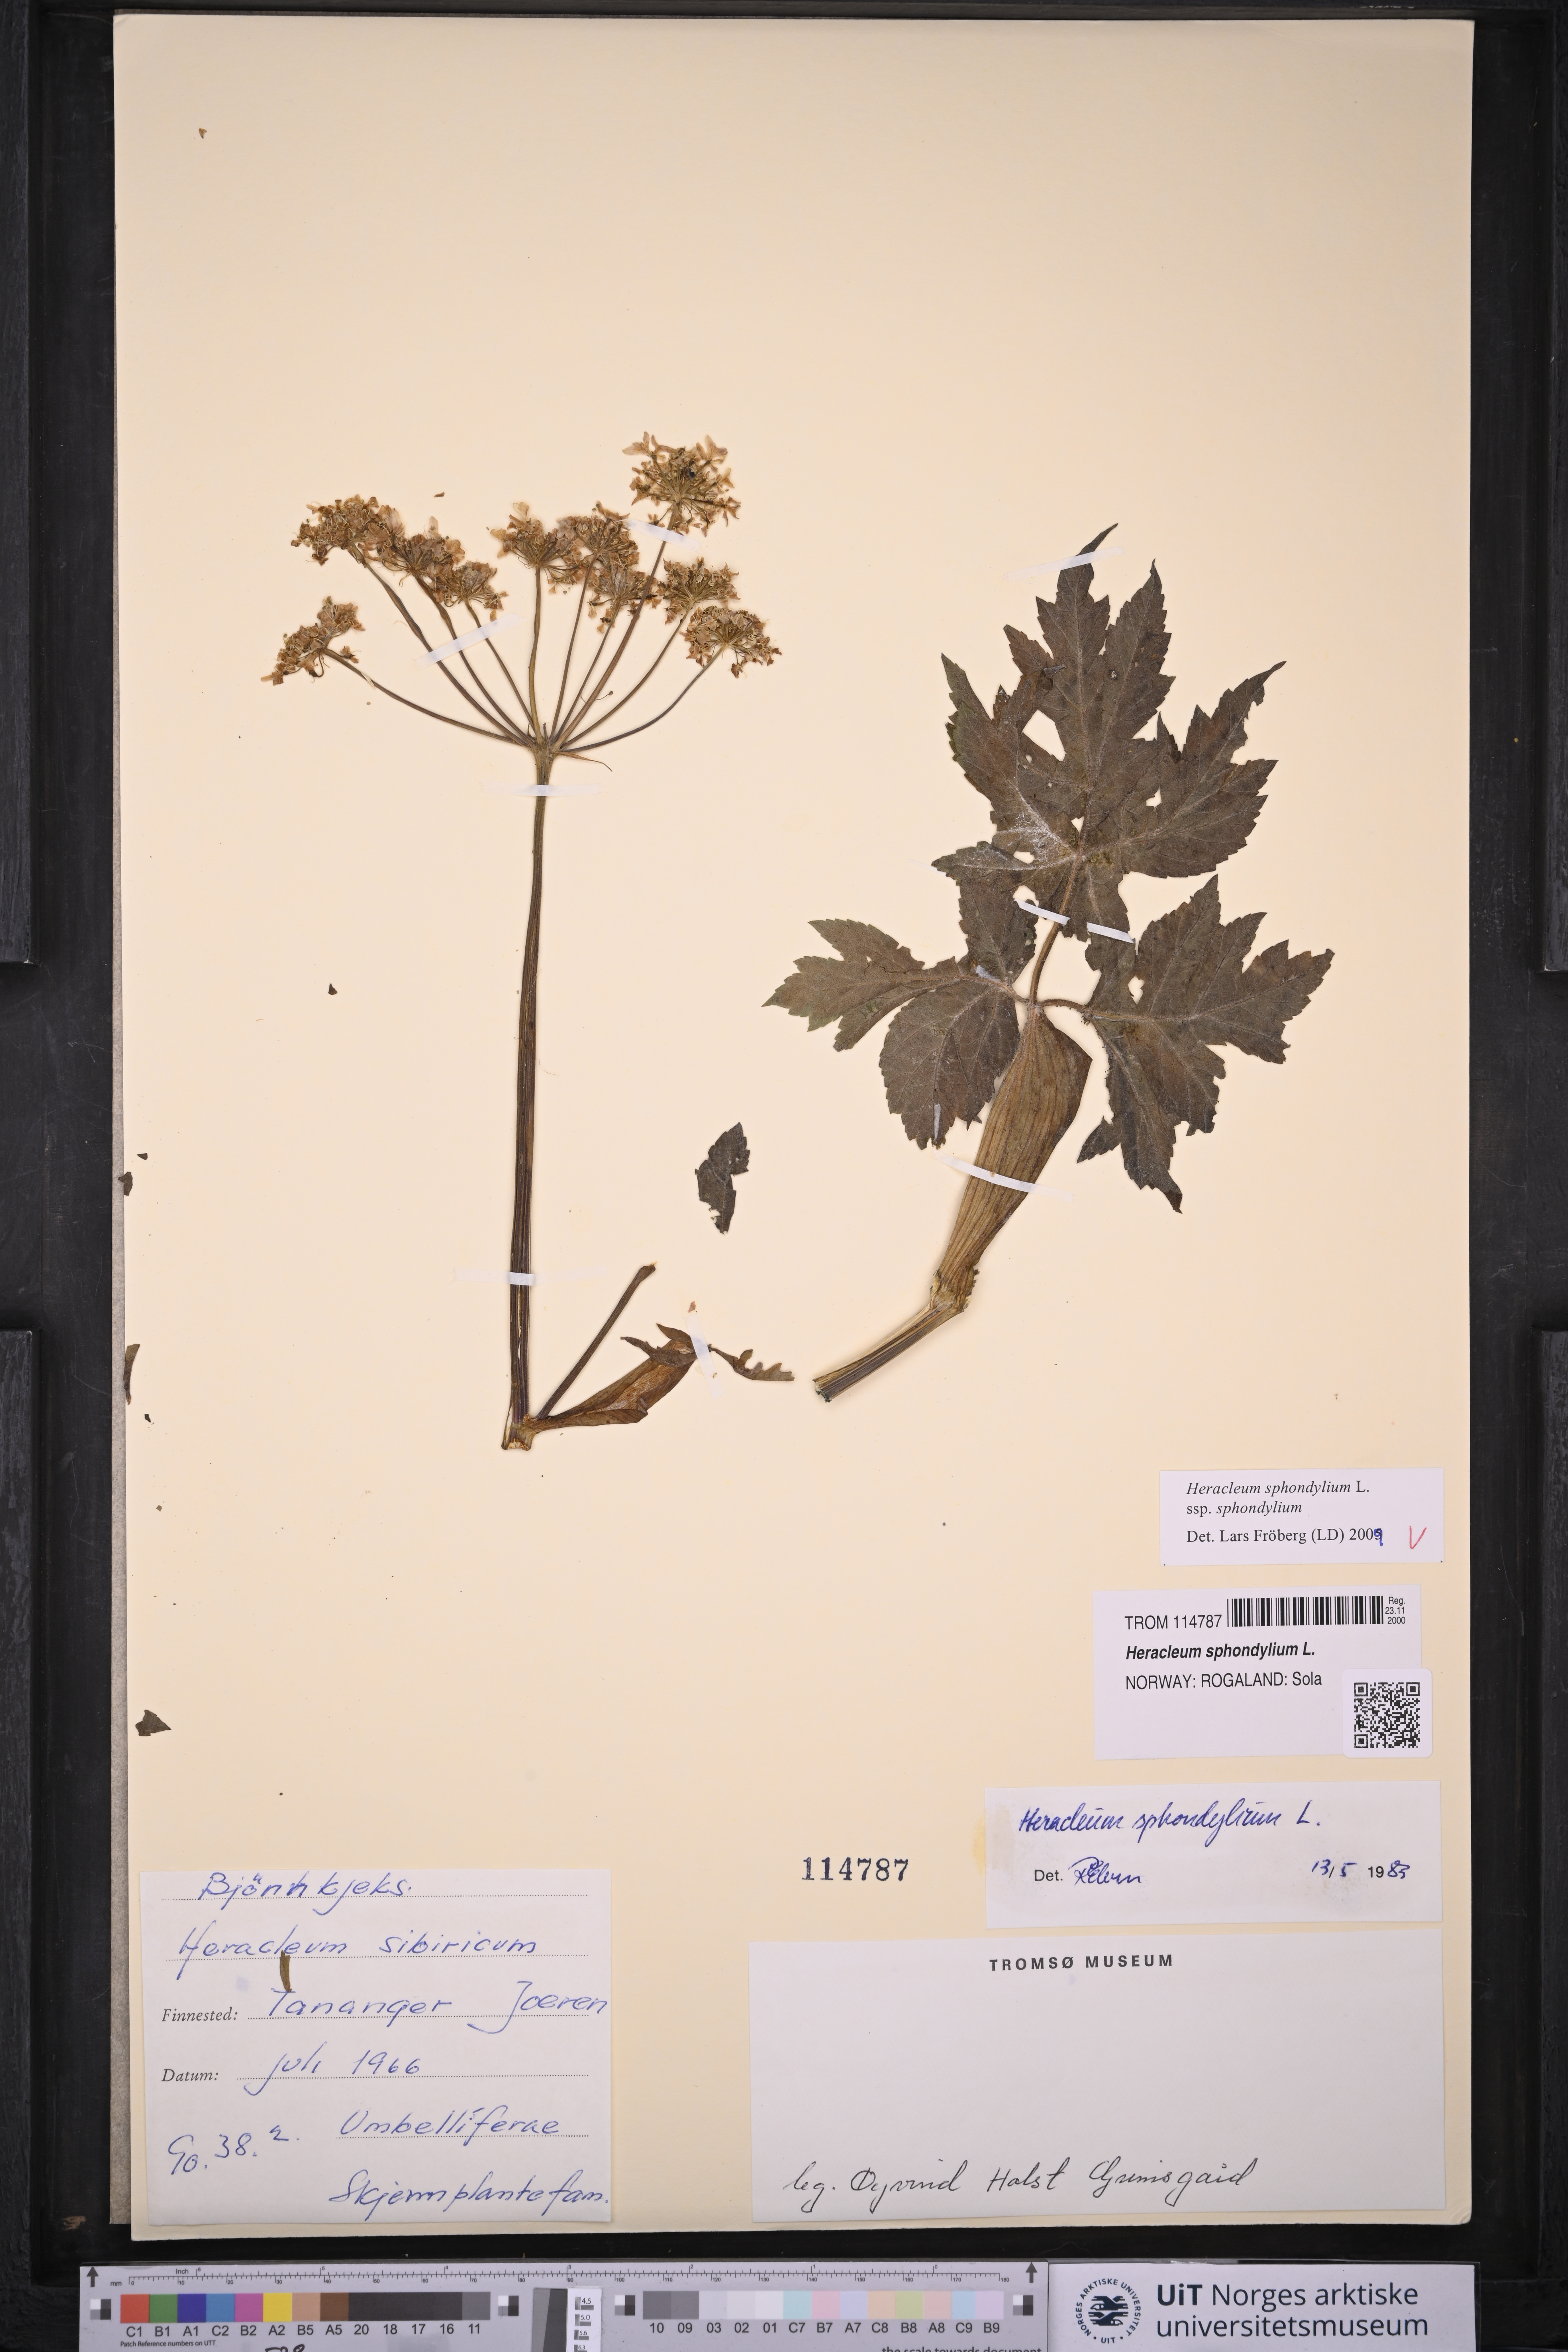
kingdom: Plantae
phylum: Tracheophyta
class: Magnoliopsida
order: Apiales
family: Apiaceae
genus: Heracleum
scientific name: Heracleum sphondylium
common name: Hogweed
